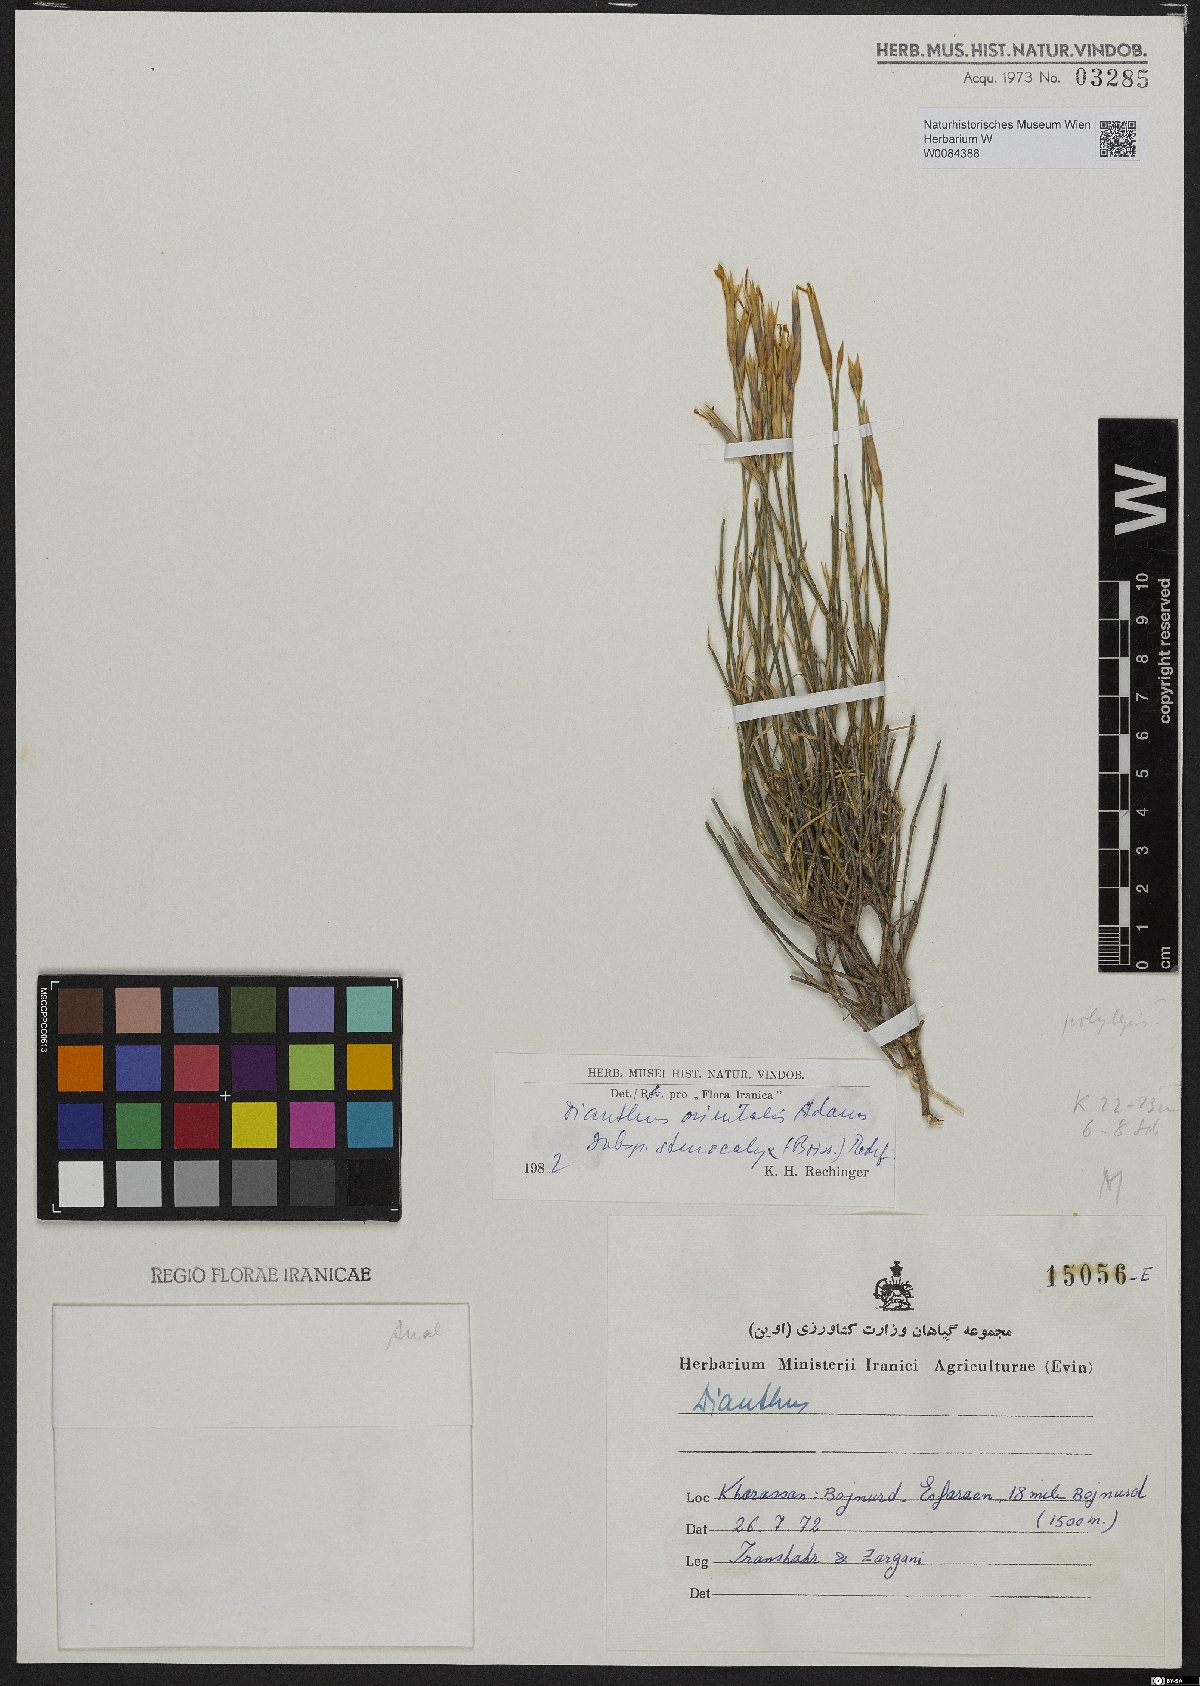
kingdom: Plantae
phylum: Tracheophyta
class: Magnoliopsida
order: Caryophyllales
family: Caryophyllaceae
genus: Dianthus
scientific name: Dianthus orientalis
